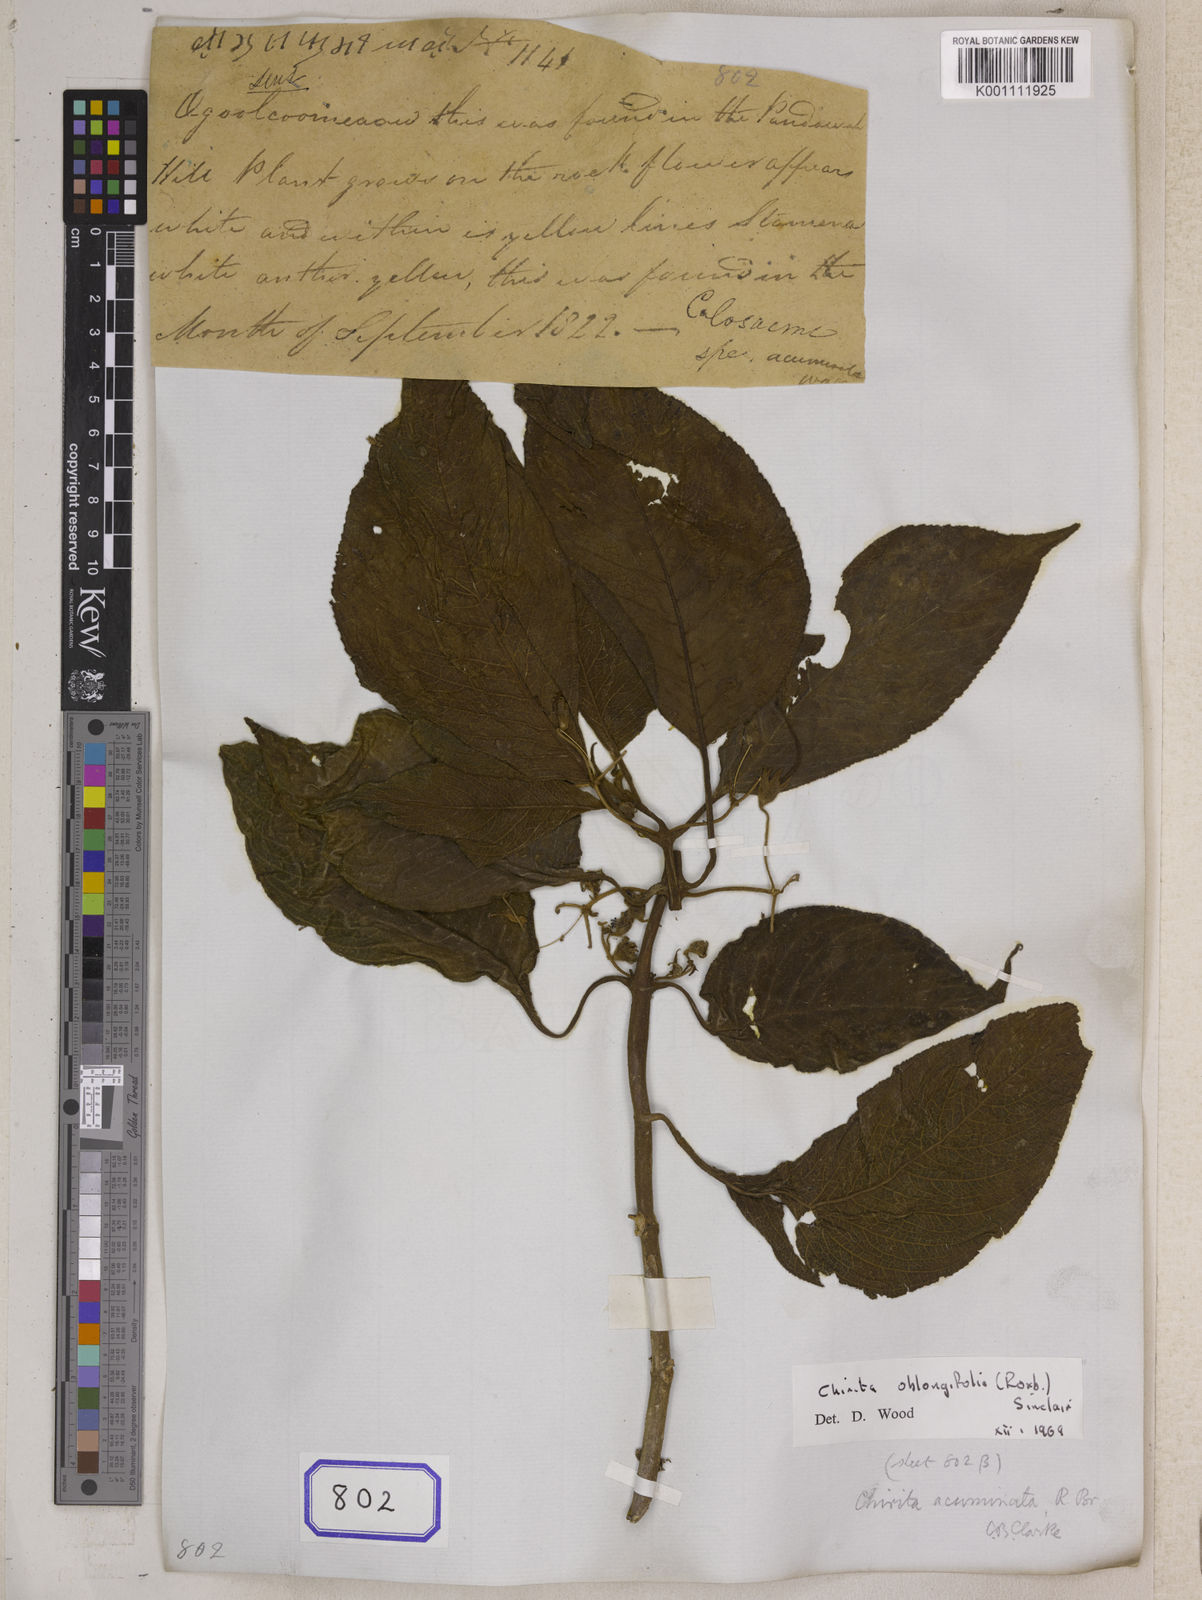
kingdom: Plantae
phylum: Tracheophyta
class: Magnoliopsida
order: Lamiales
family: Gesneriaceae
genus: Didymocarpus
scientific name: Didymocarpus acuminatus
